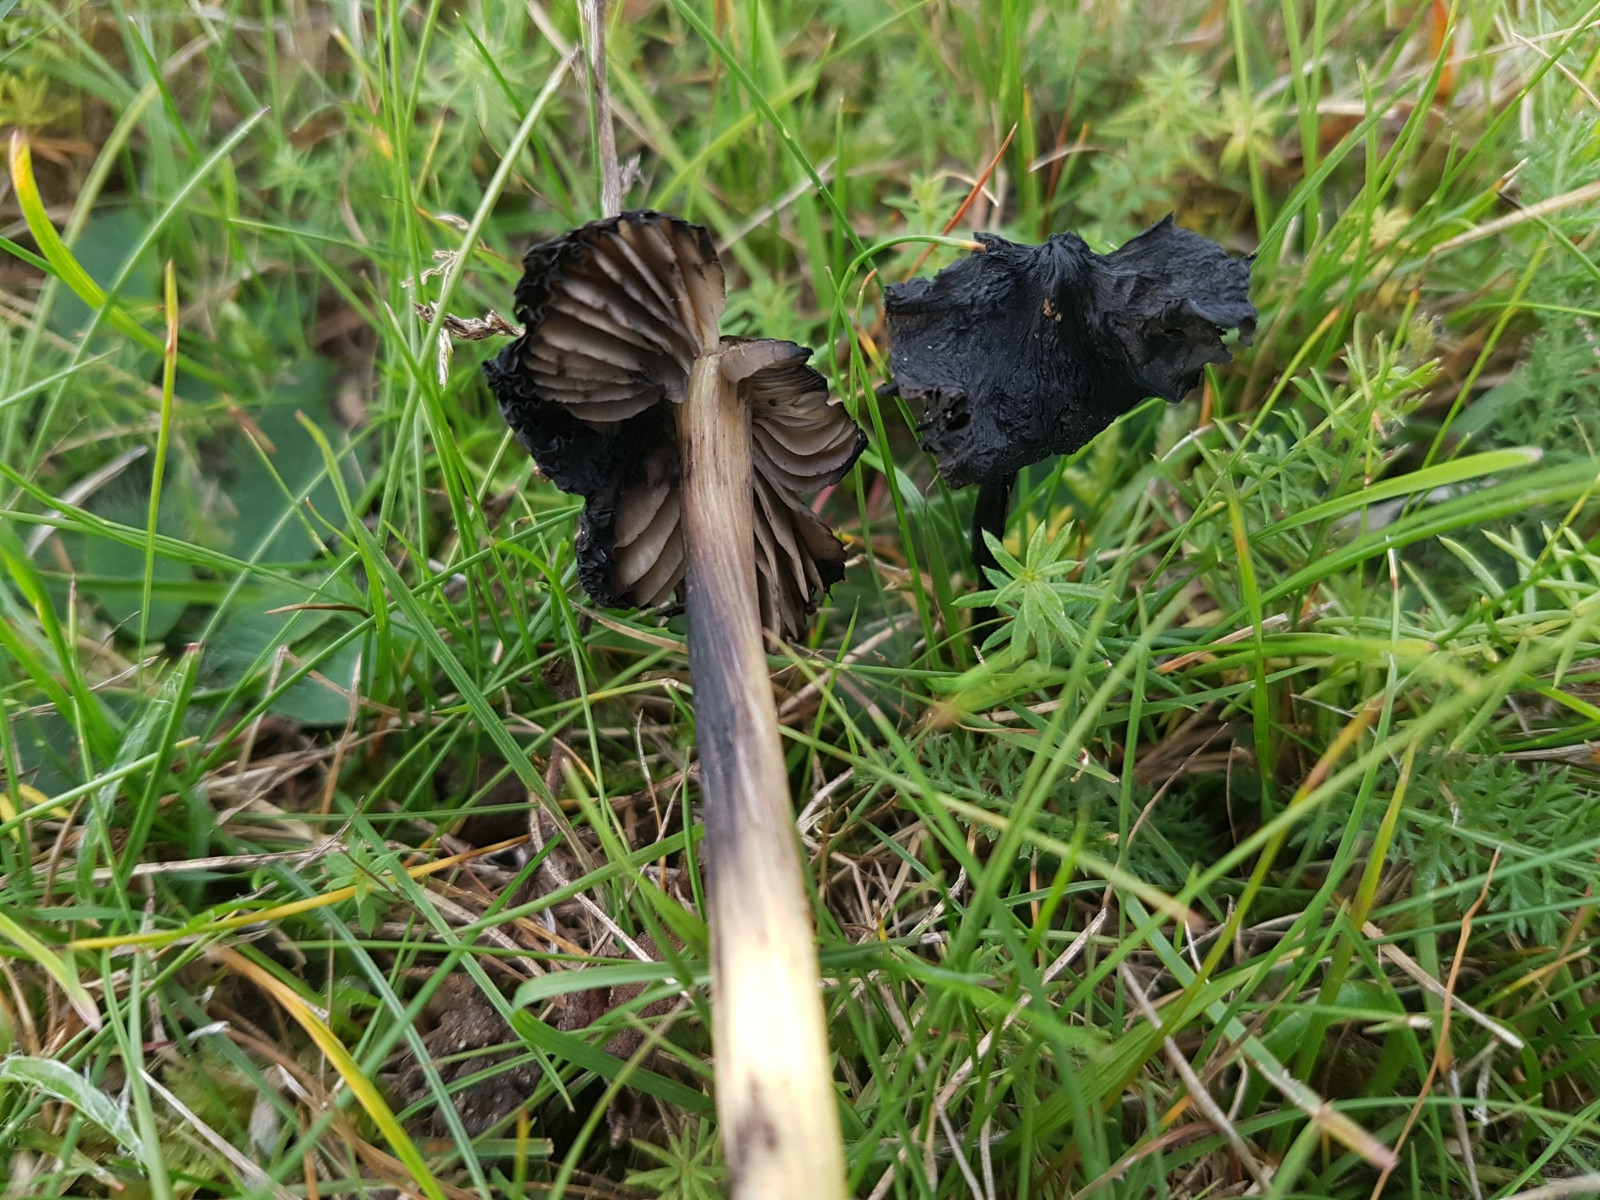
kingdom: Fungi
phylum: Basidiomycota
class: Agaricomycetes
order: Agaricales
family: Hygrophoraceae
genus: Hygrocybe
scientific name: Hygrocybe conica
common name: kegle-vokshat
